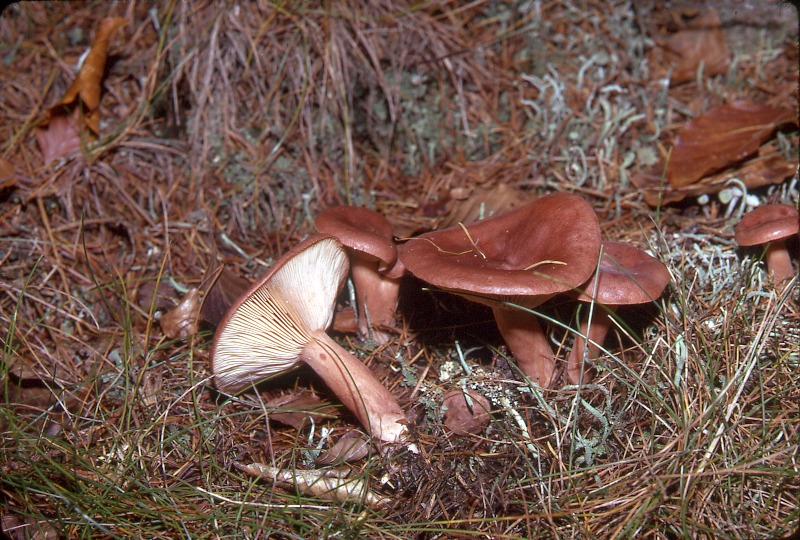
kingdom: Fungi
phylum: Basidiomycota
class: Agaricomycetes
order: Russulales
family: Russulaceae
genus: Lactarius
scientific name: Lactarius rufus
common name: Rufous milk-cap
